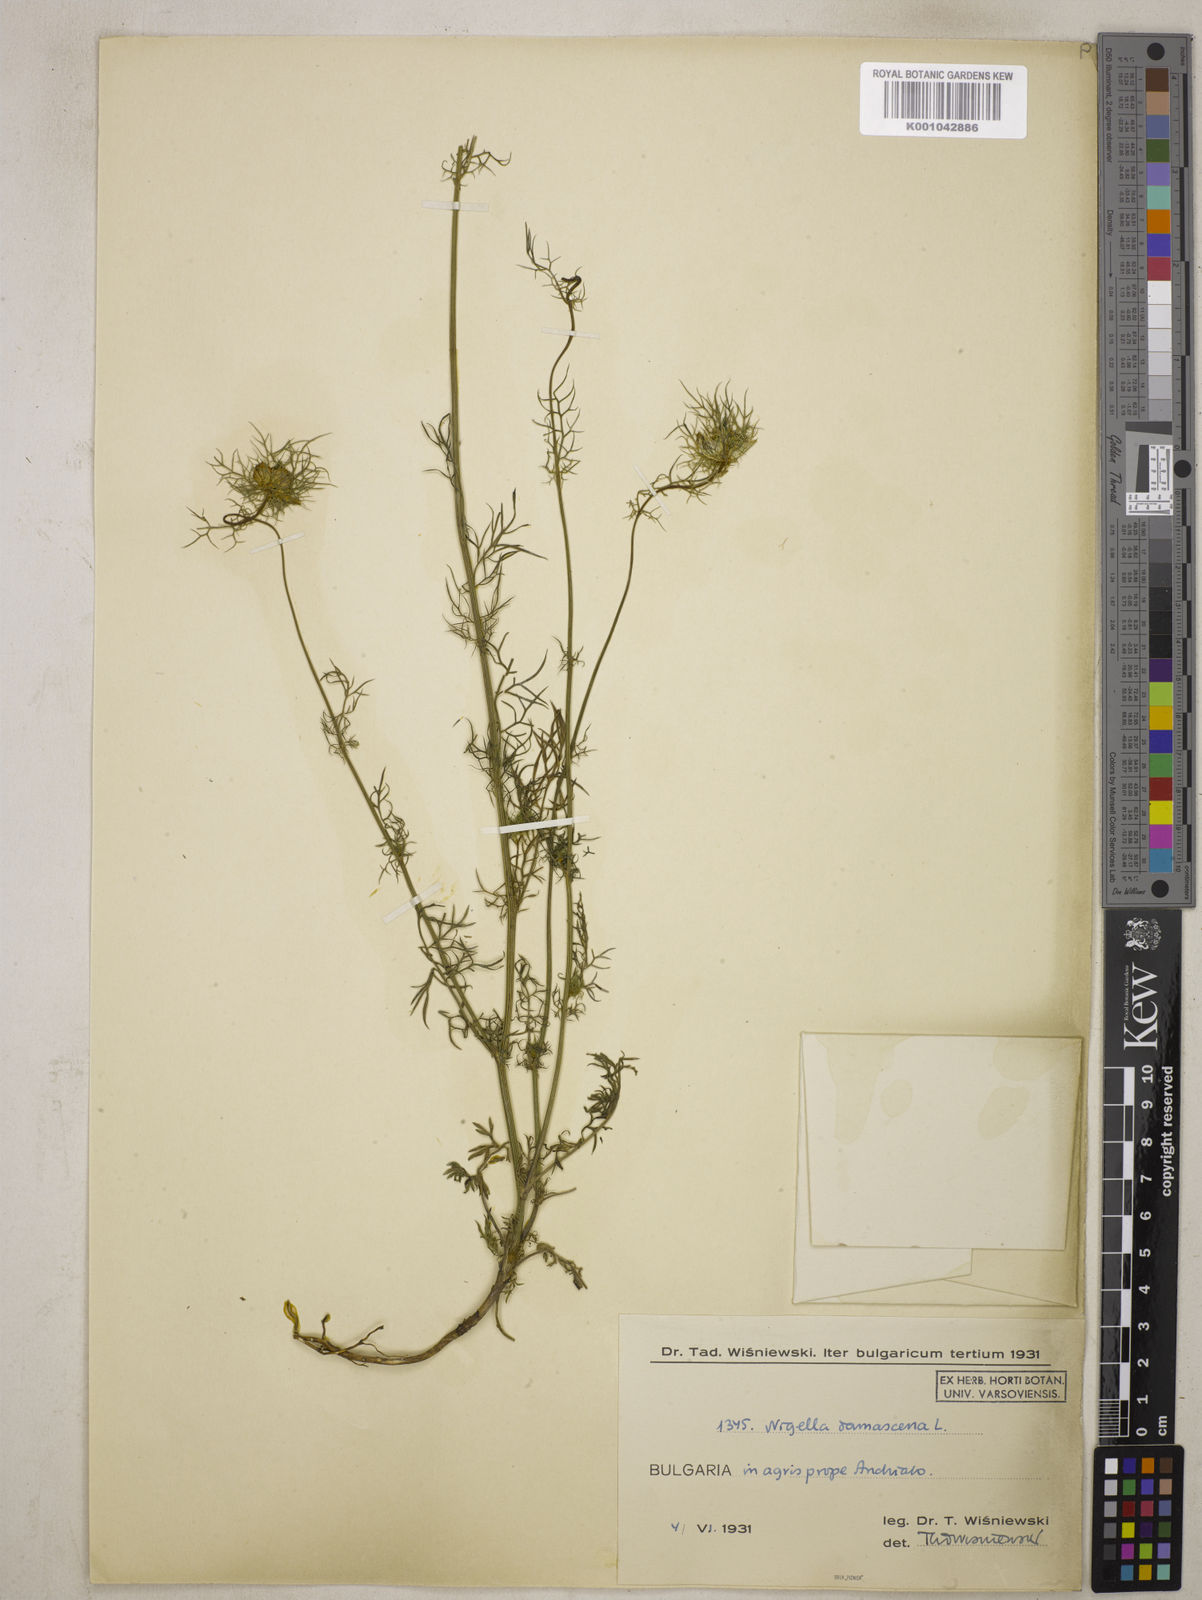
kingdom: Plantae
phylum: Tracheophyta
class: Magnoliopsida
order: Ranunculales
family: Ranunculaceae
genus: Nigella
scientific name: Nigella damascena
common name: Love-in-a-mist
